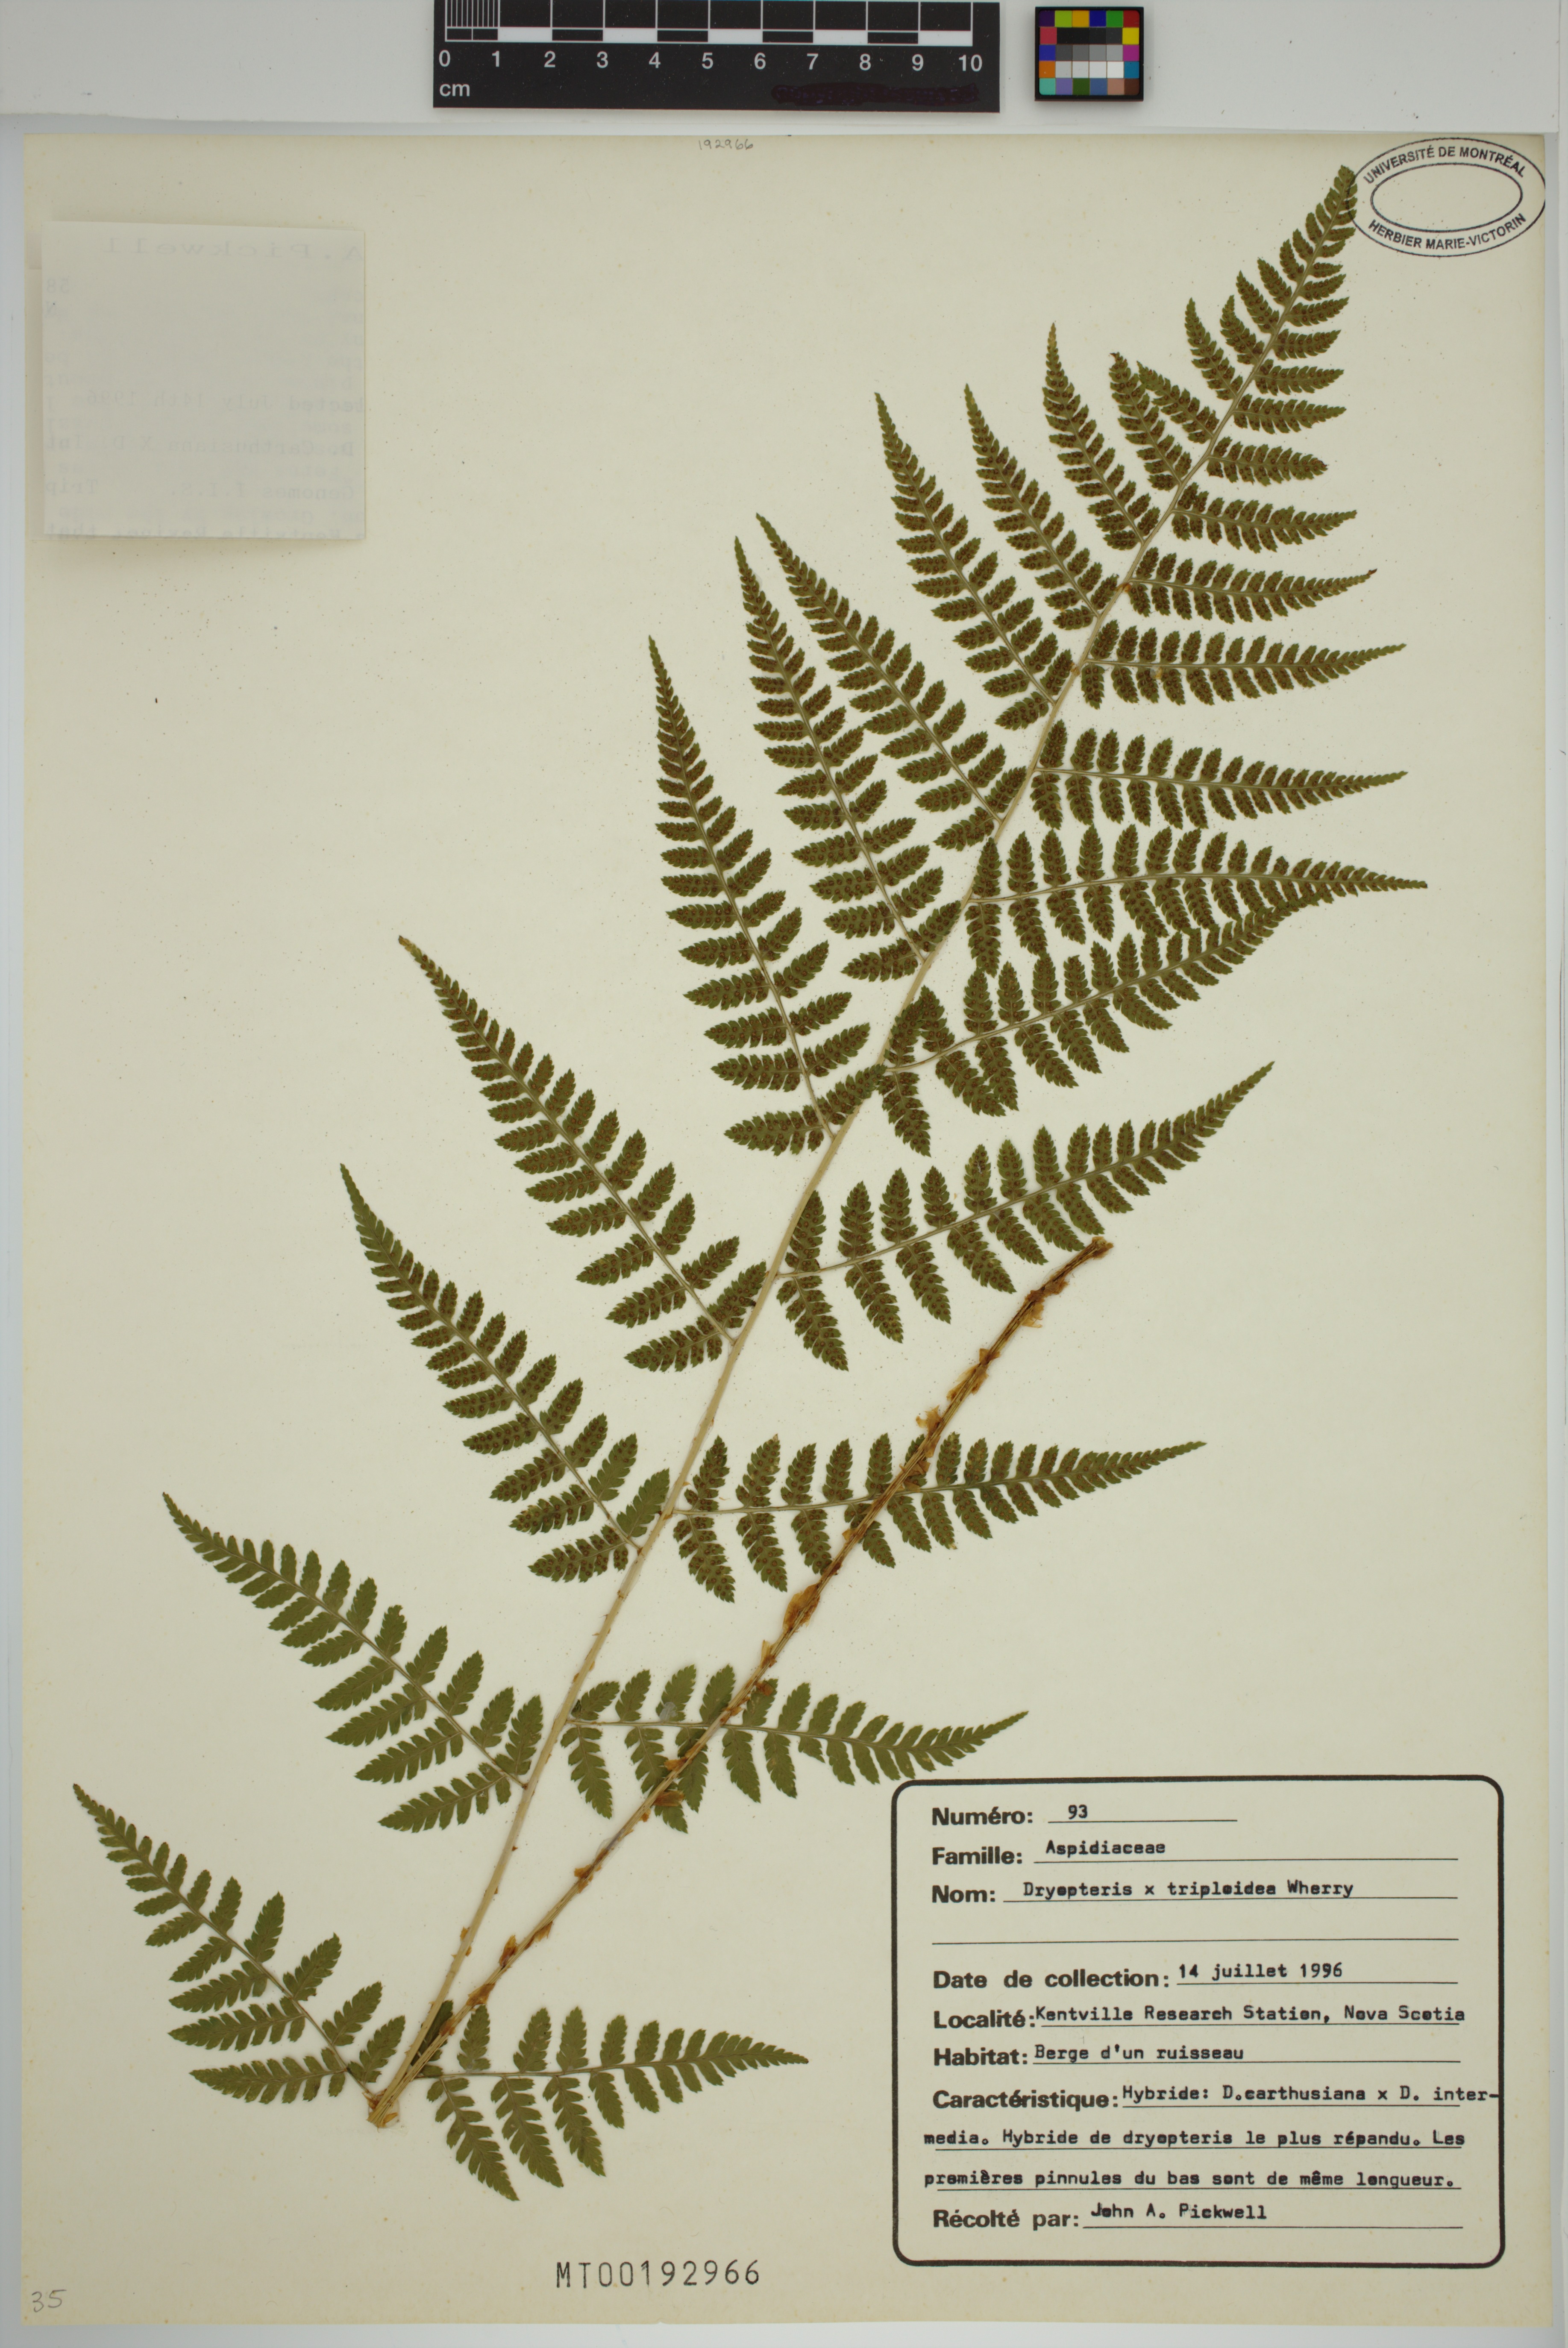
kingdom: Plantae
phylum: Tracheophyta
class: Polypodiopsida
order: Polypodiales
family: Dryopteridaceae
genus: Dryopteris
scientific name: Dryopteris triploidea
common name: Fruitful wood fern
